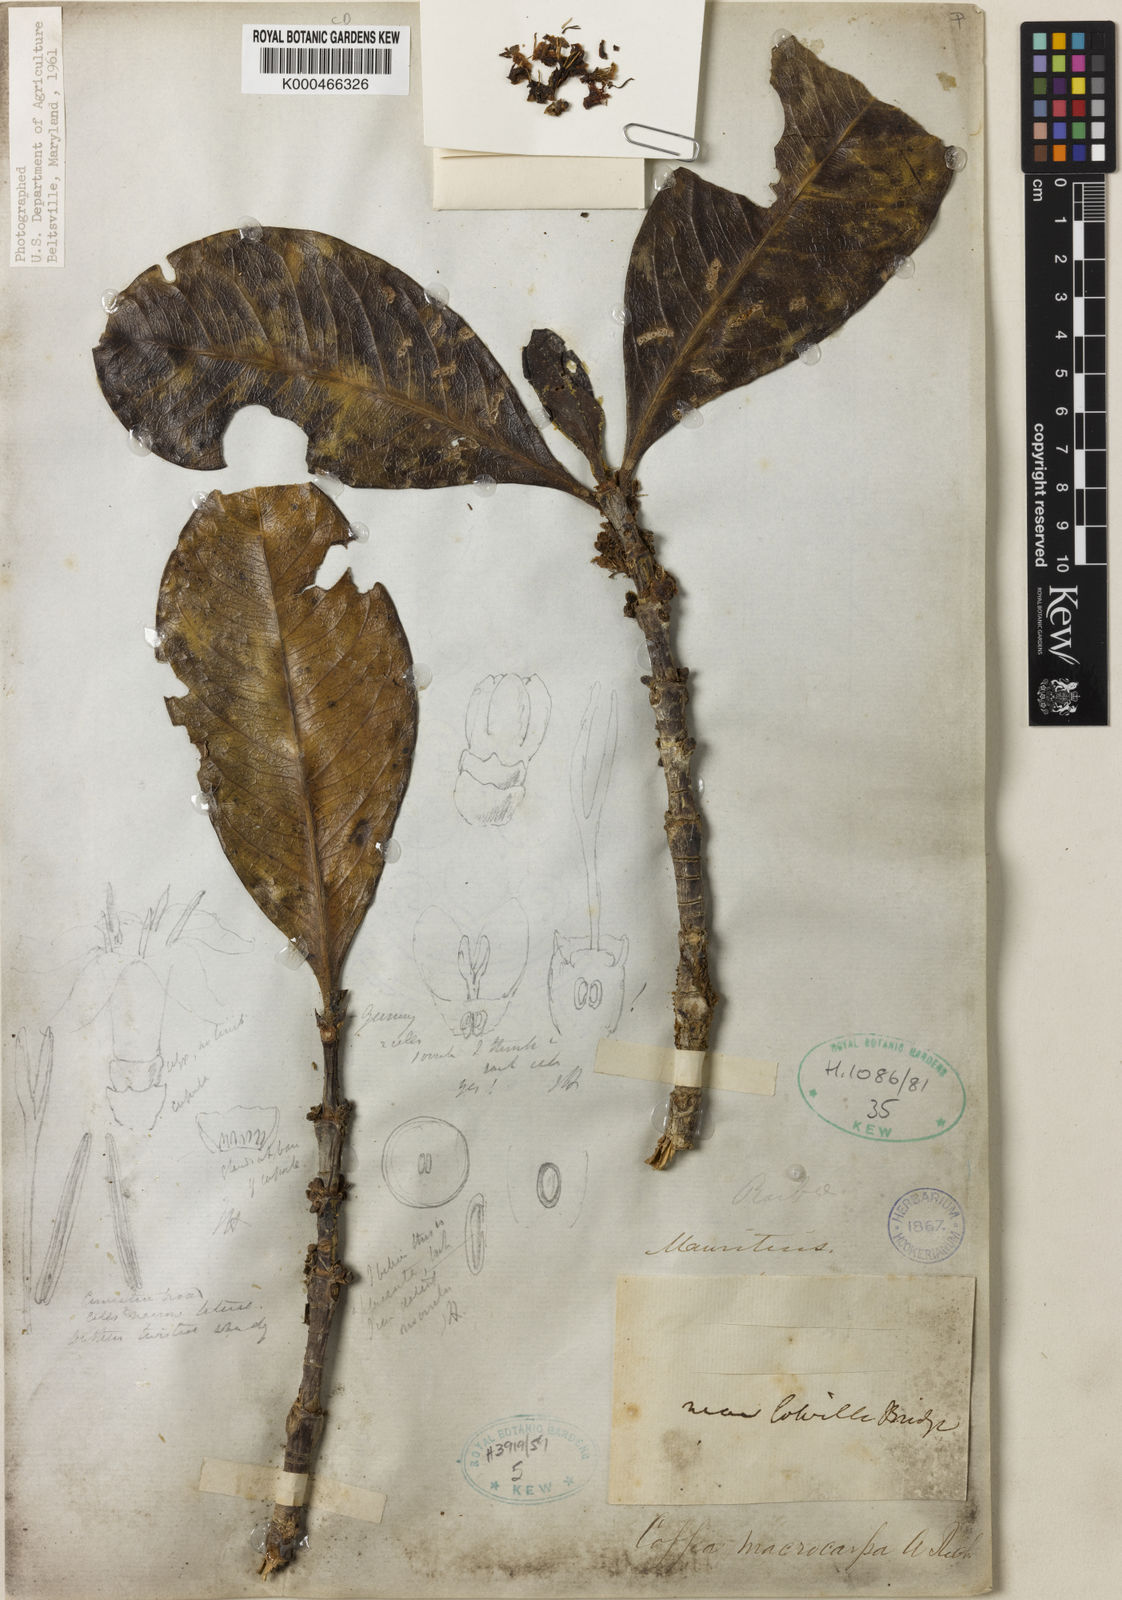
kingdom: Plantae
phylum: Tracheophyta
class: Magnoliopsida
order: Gentianales
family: Rubiaceae
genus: Coffea
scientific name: Coffea macrocarpa
